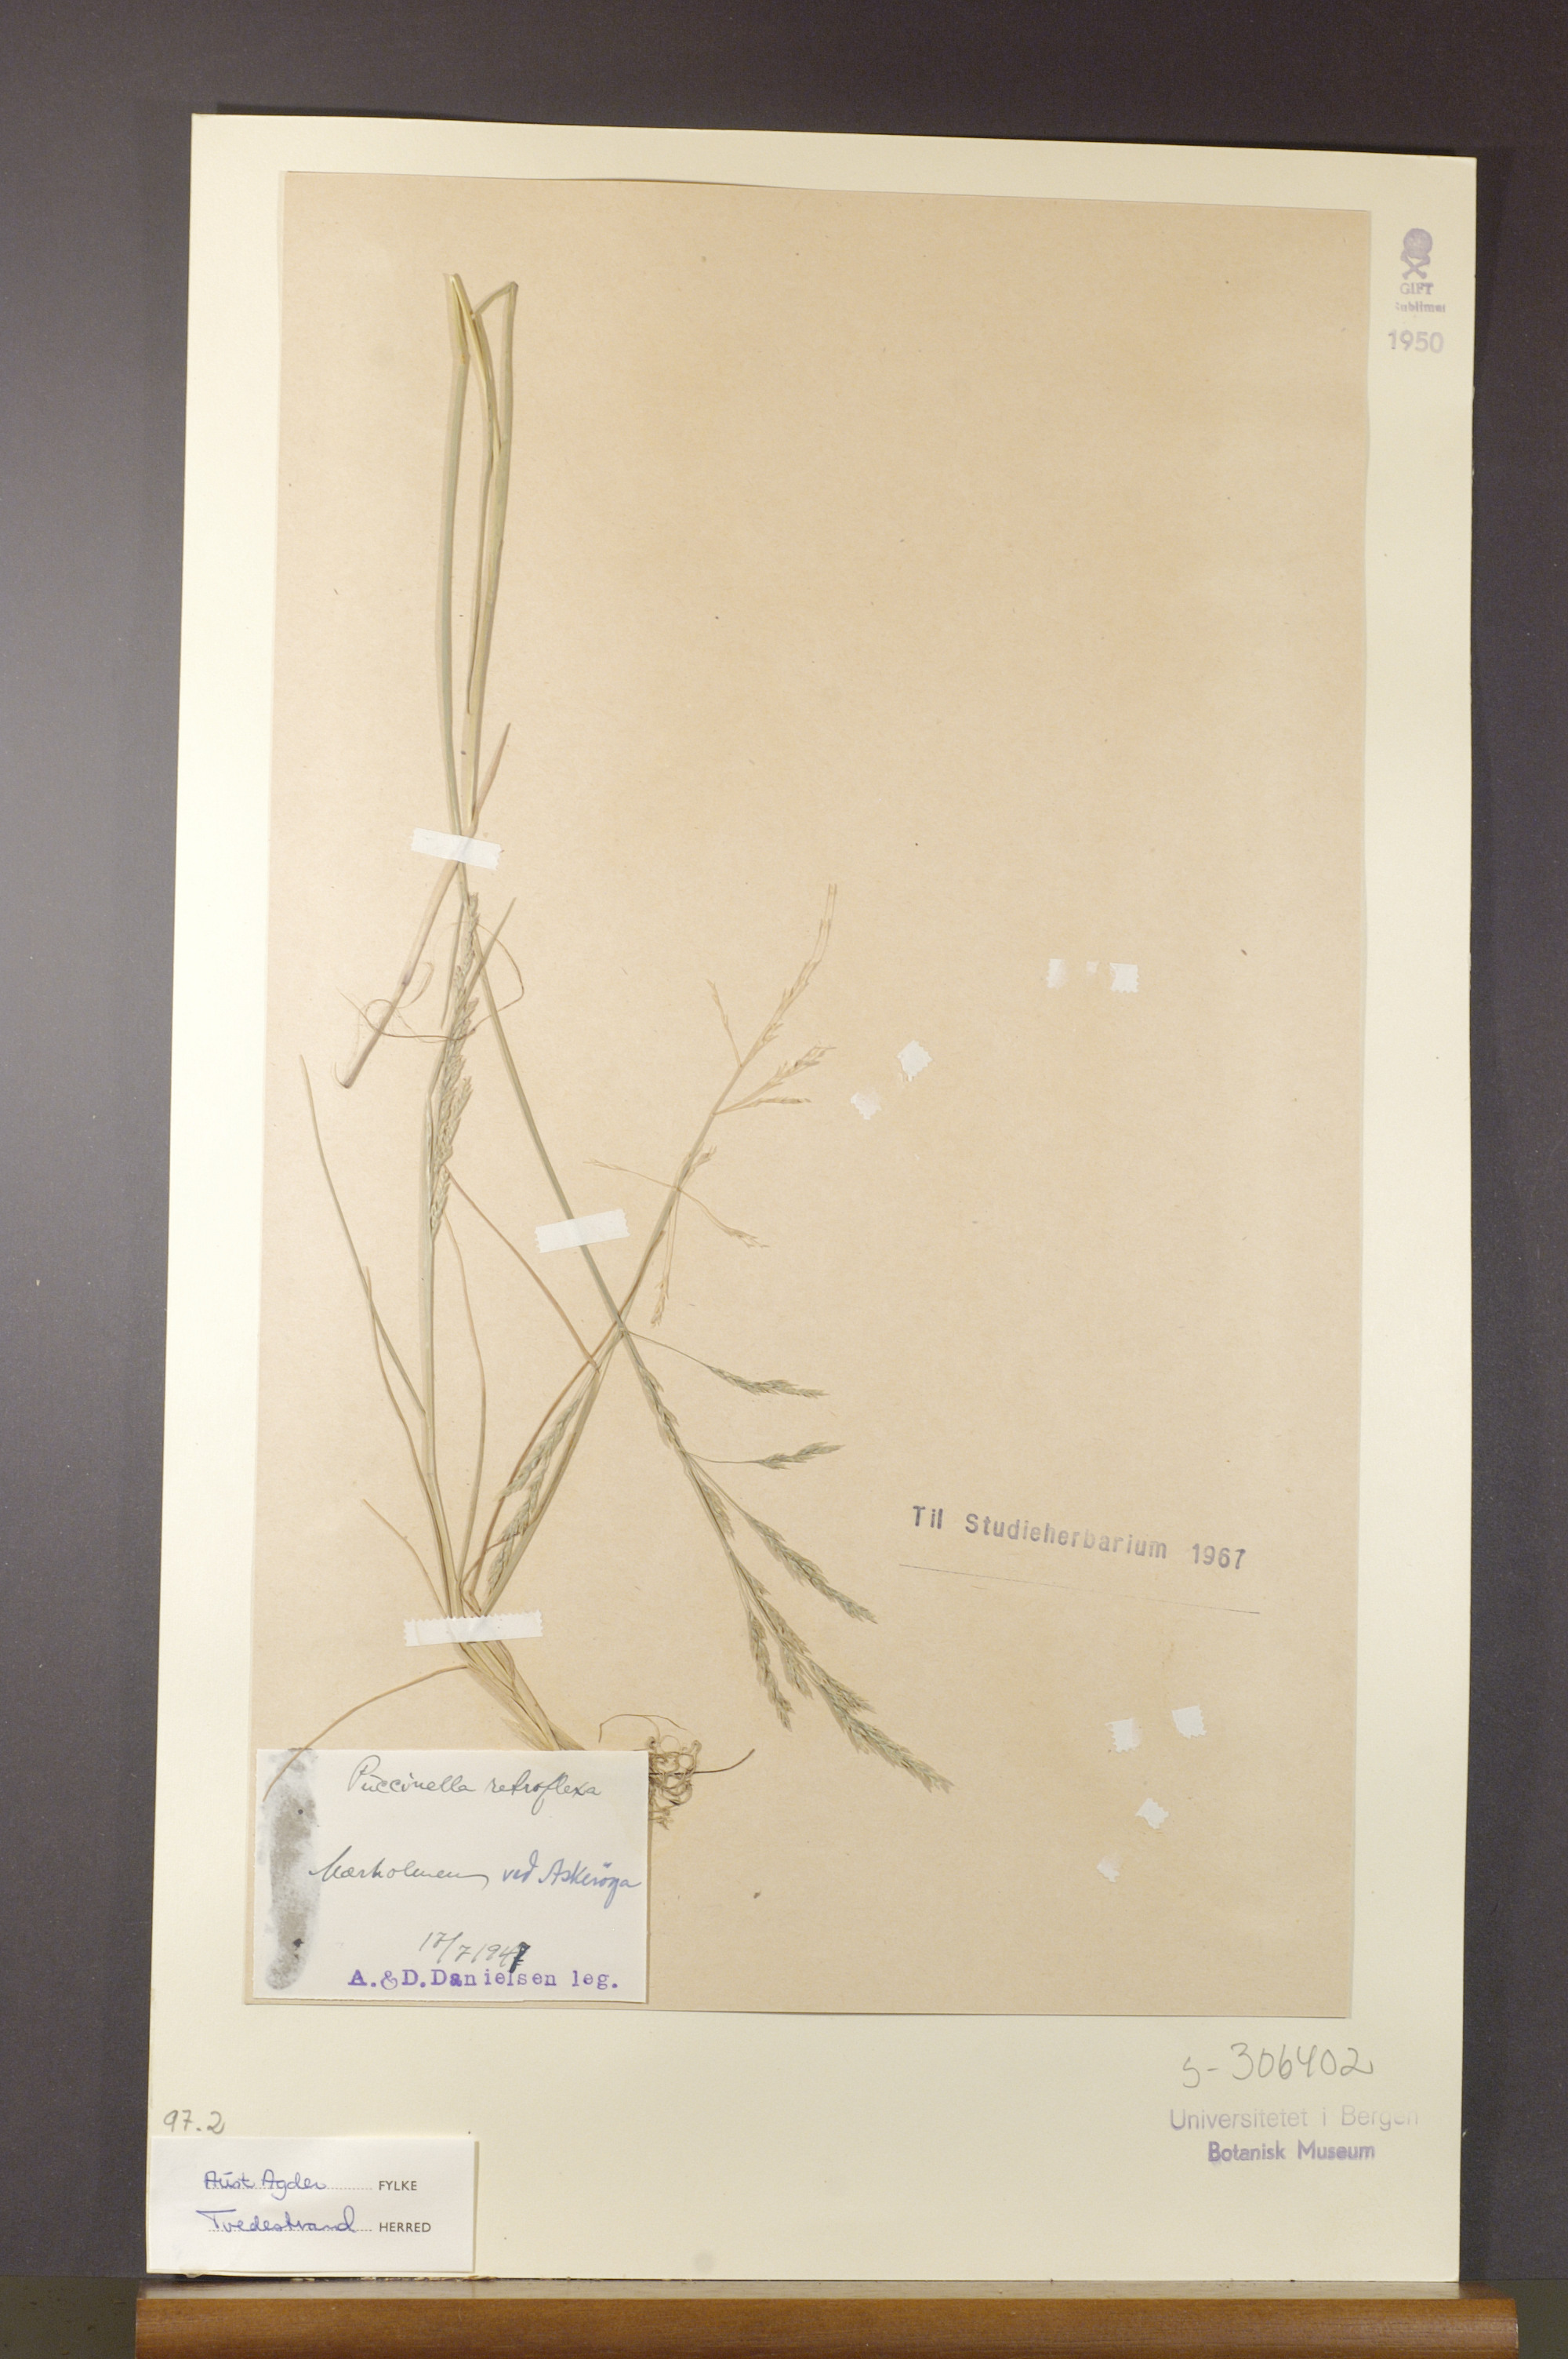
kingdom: Plantae
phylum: Tracheophyta
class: Liliopsida
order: Poales
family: Poaceae
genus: Puccinellia
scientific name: Puccinellia distans
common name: Weeping alkaligrass
